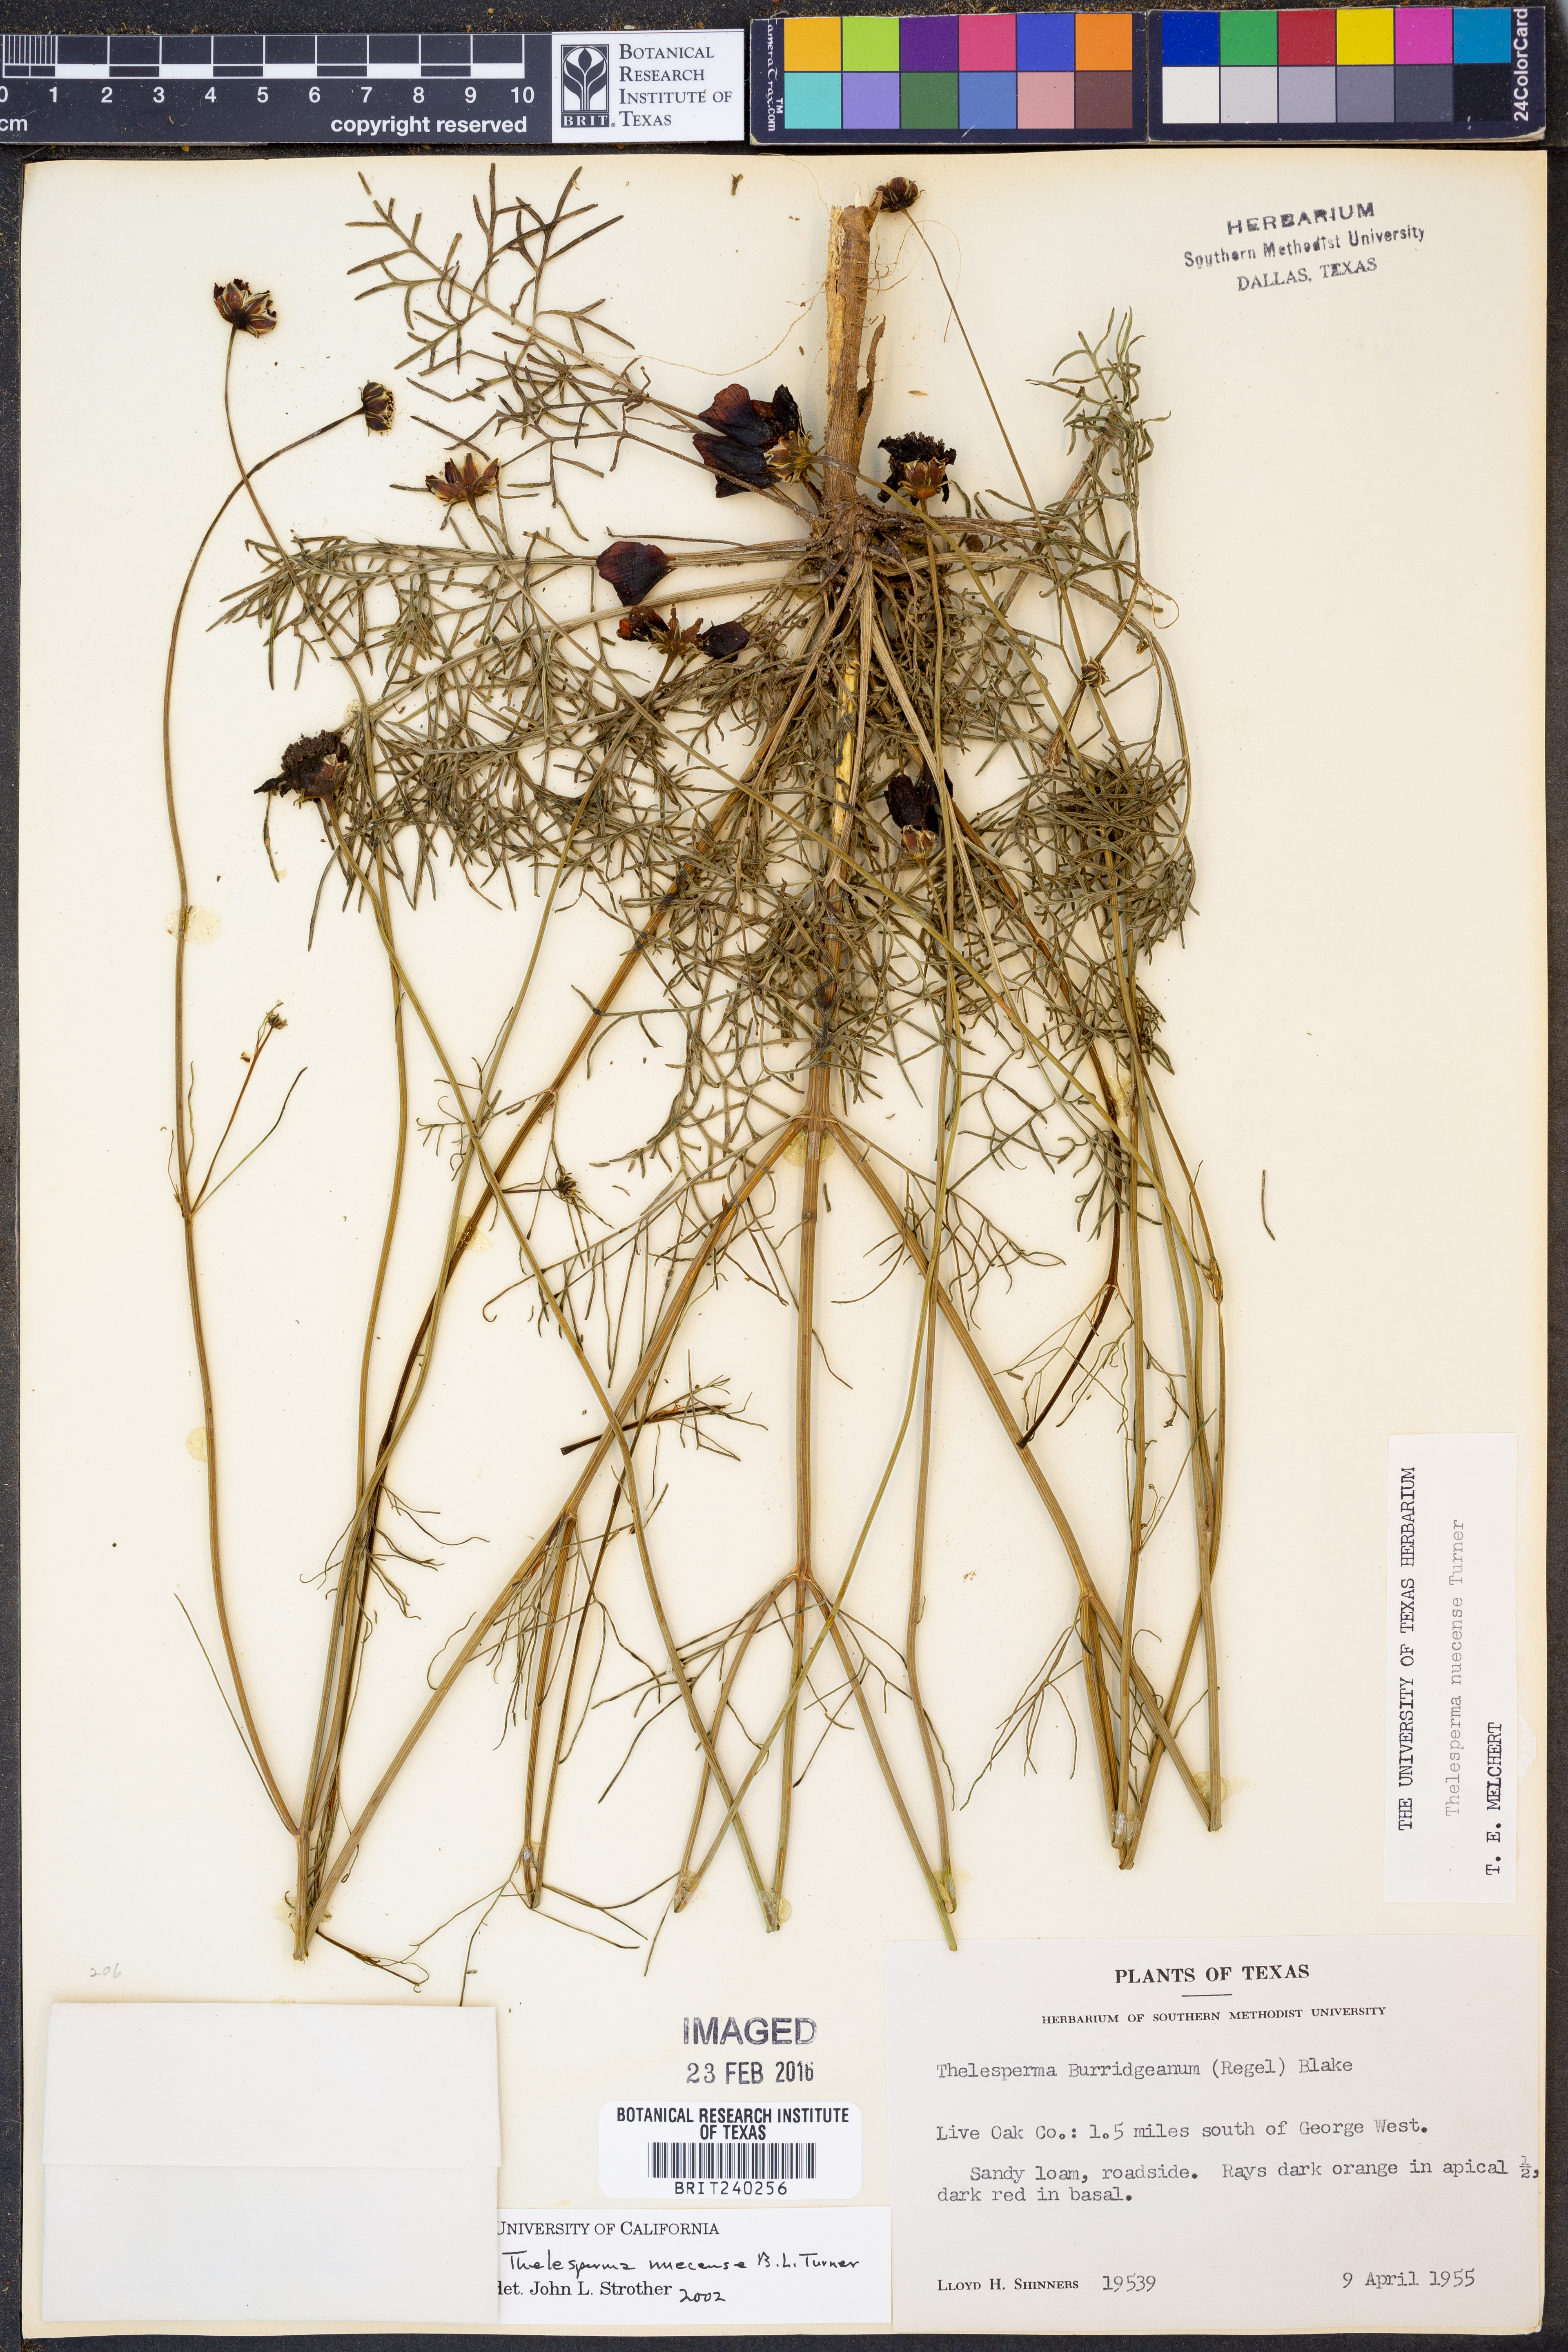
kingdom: Plantae
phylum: Tracheophyta
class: Magnoliopsida
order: Asterales
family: Asteraceae
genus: Thelesperma
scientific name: Thelesperma nuecense
